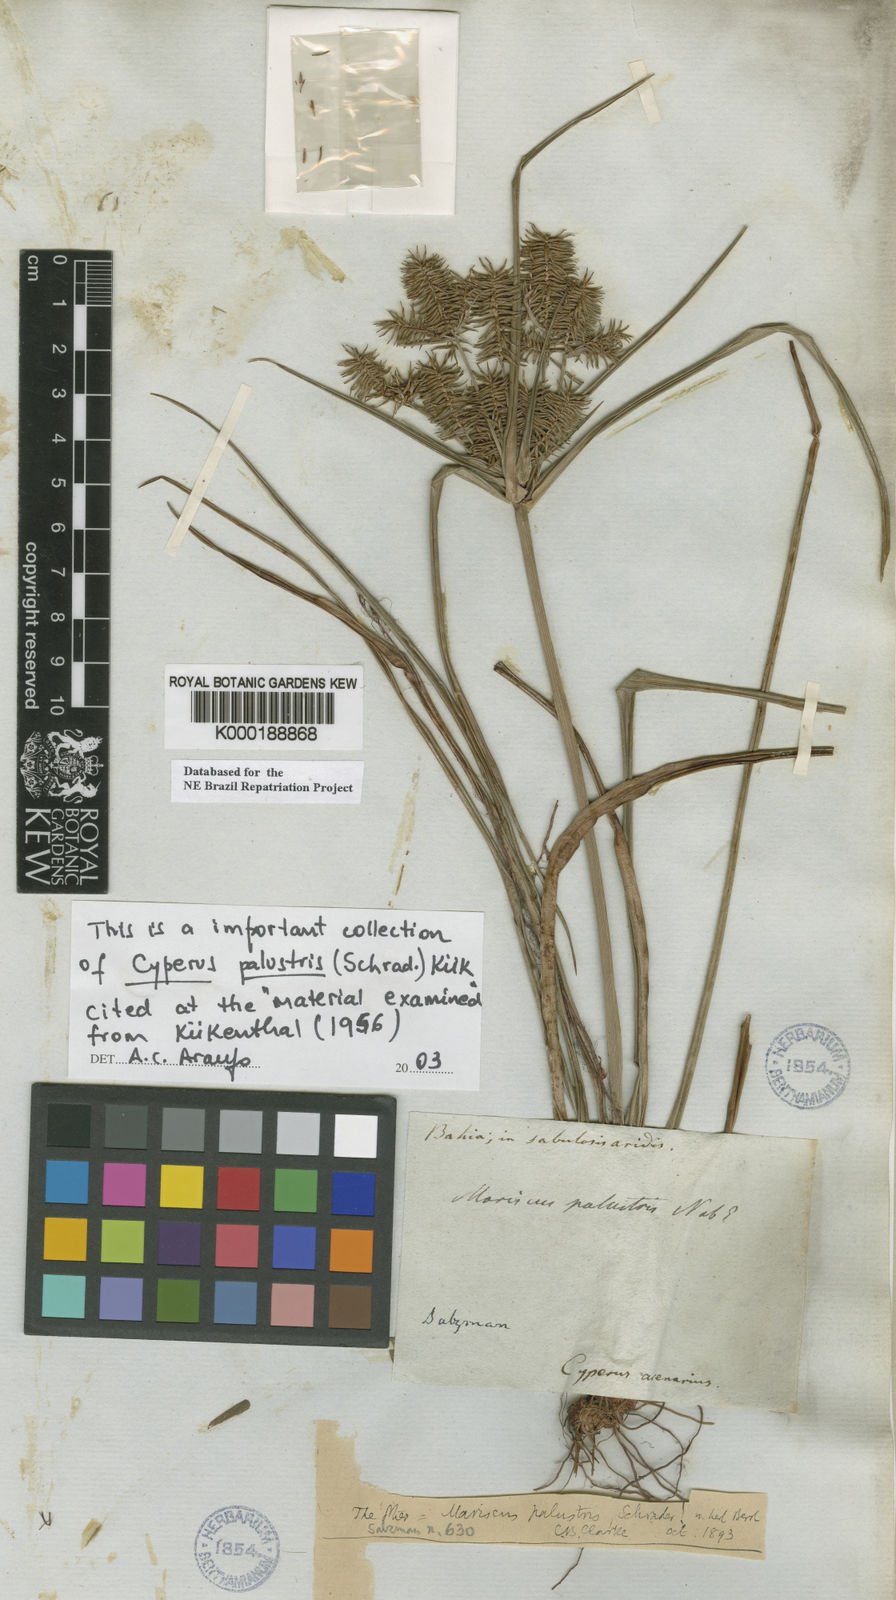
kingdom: Plantae
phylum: Tracheophyta
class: Liliopsida
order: Poales
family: Cyperaceae
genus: Cyperus
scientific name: Cyperus meyerianus
